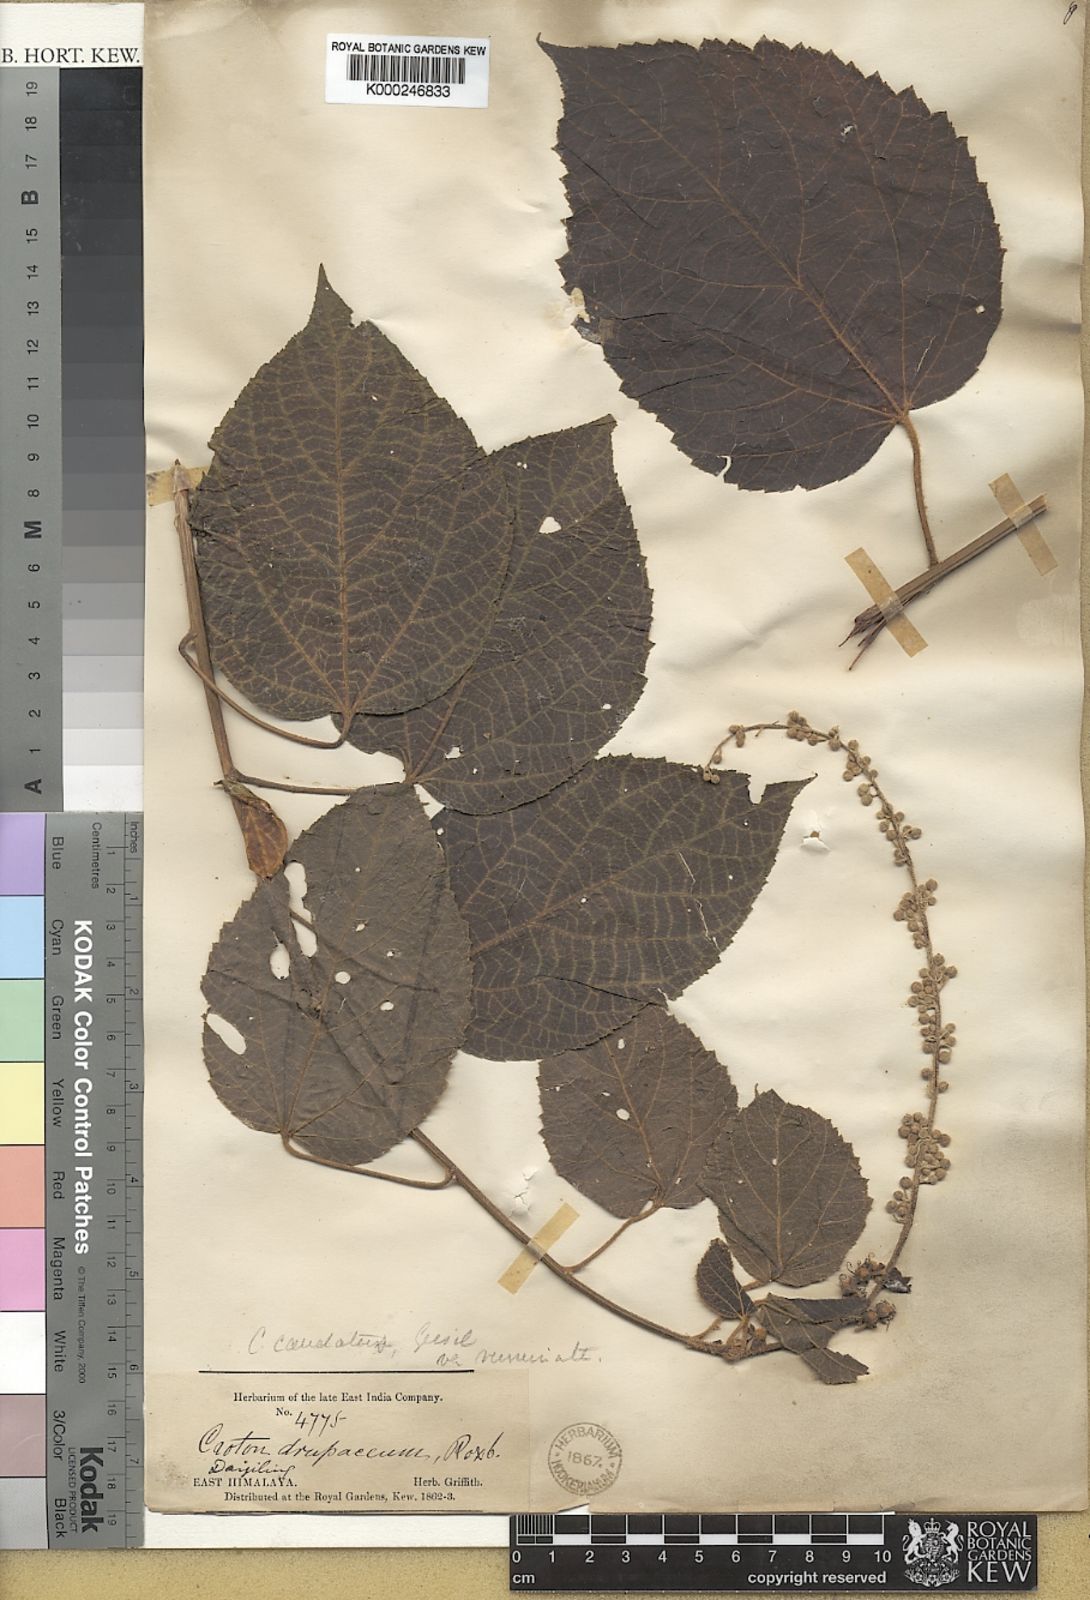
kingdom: Plantae
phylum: Tracheophyta
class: Magnoliopsida
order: Malpighiales
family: Euphorbiaceae
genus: Croton
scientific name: Croton caudatus
